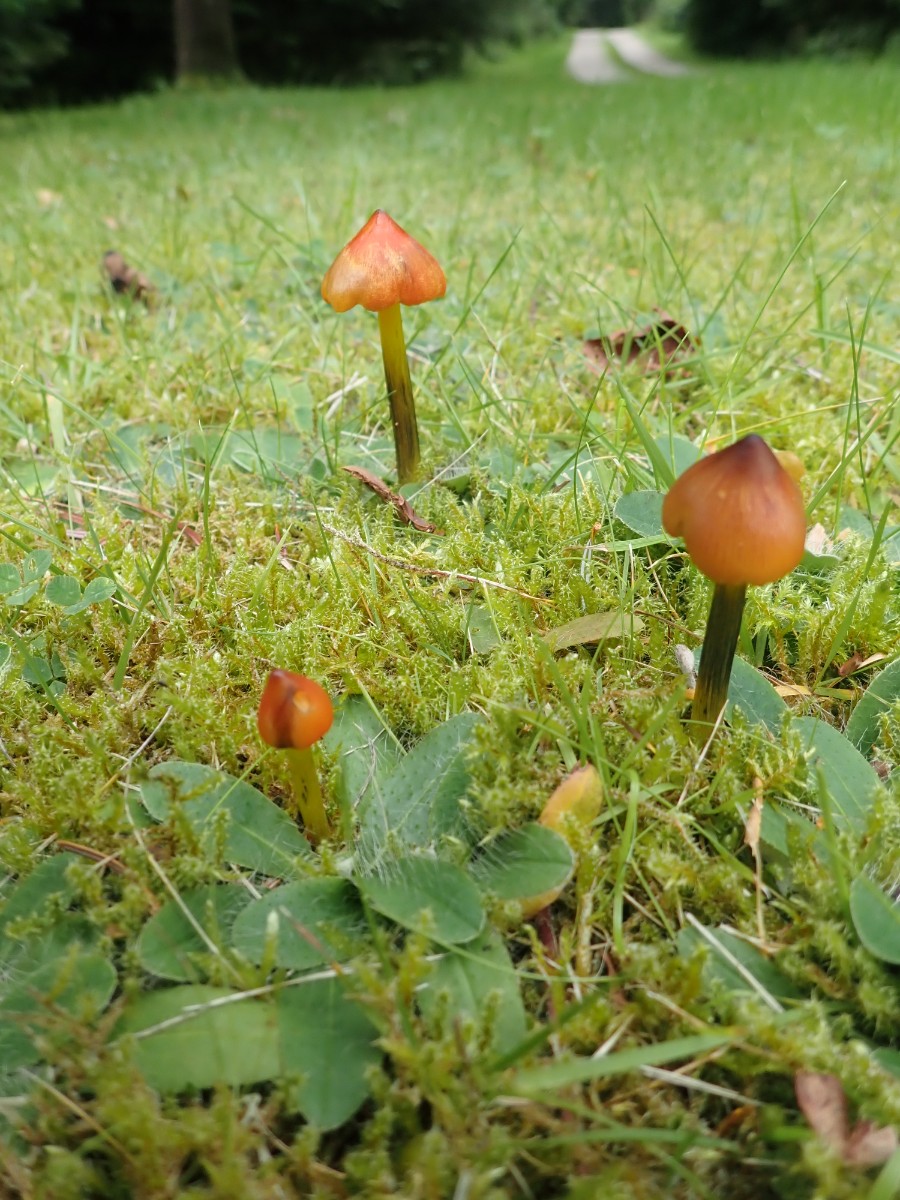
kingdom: Fungi
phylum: Basidiomycota
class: Agaricomycetes
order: Agaricales
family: Hygrophoraceae
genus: Hygrocybe
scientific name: Hygrocybe conica
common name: kegle-vokshat
